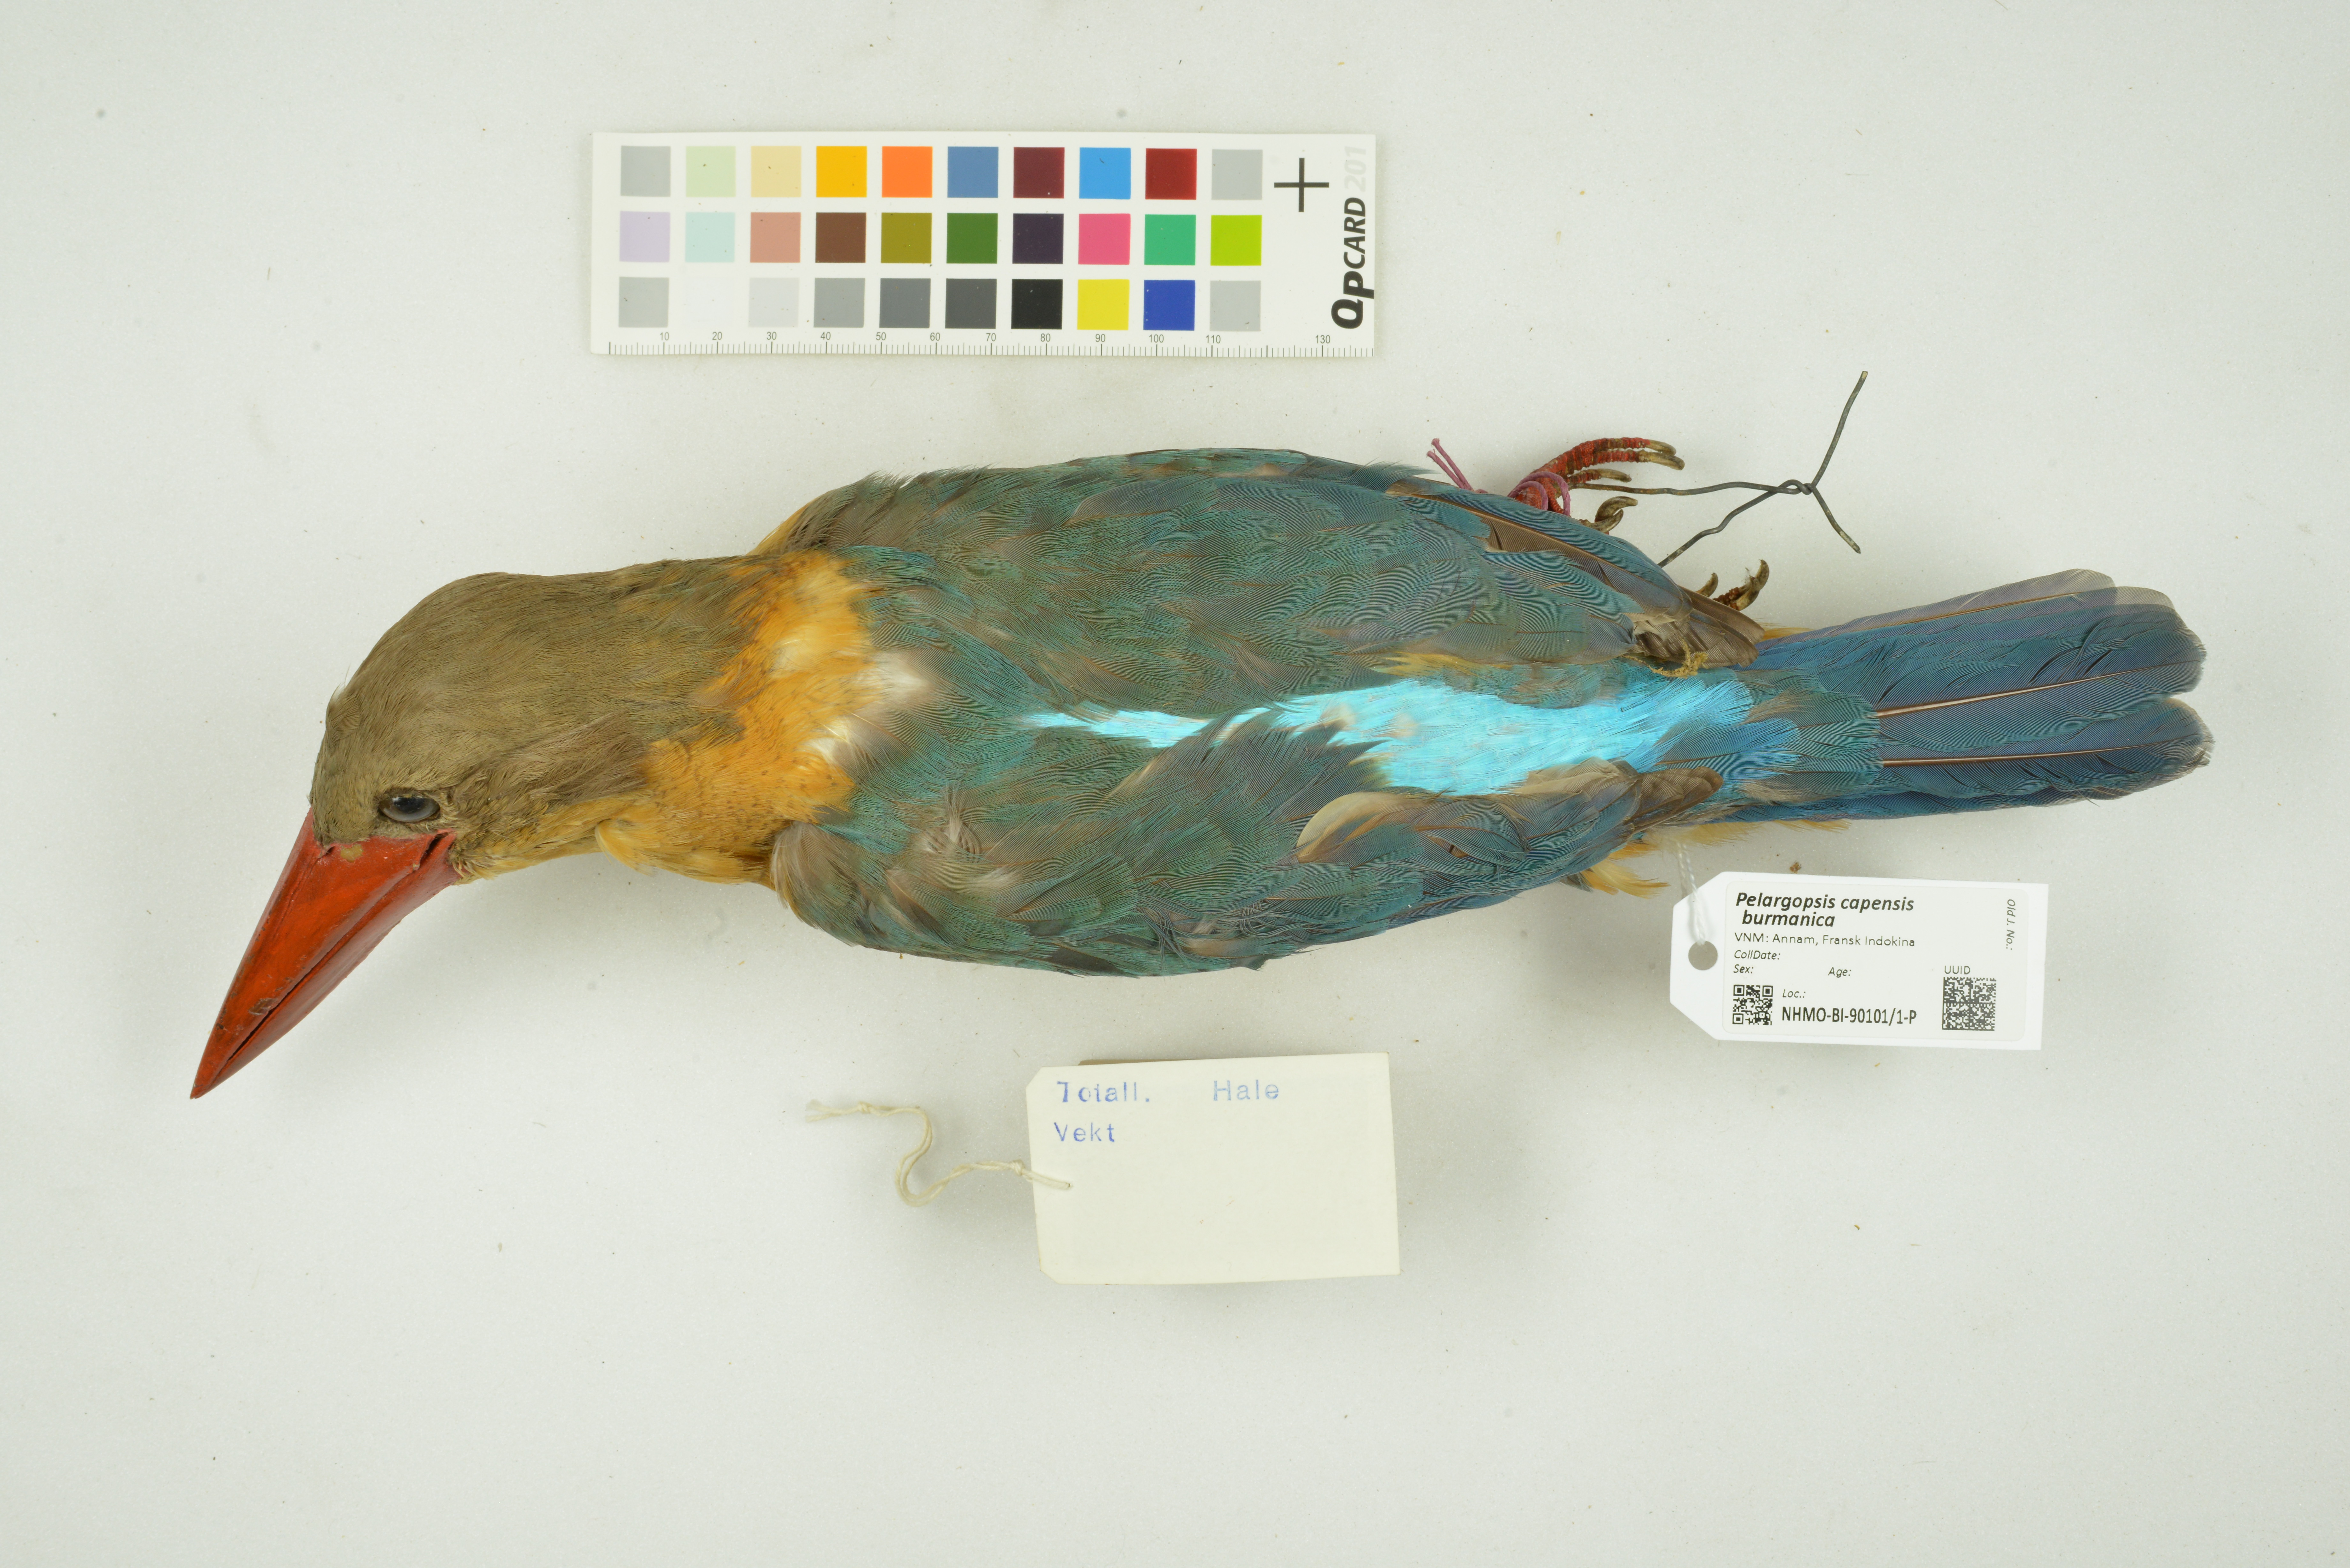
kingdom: Animalia
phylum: Chordata
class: Aves
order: Coraciiformes
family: Alcedinidae
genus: Pelargopsis
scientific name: Pelargopsis capensis
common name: Stork-billed kingfisher
